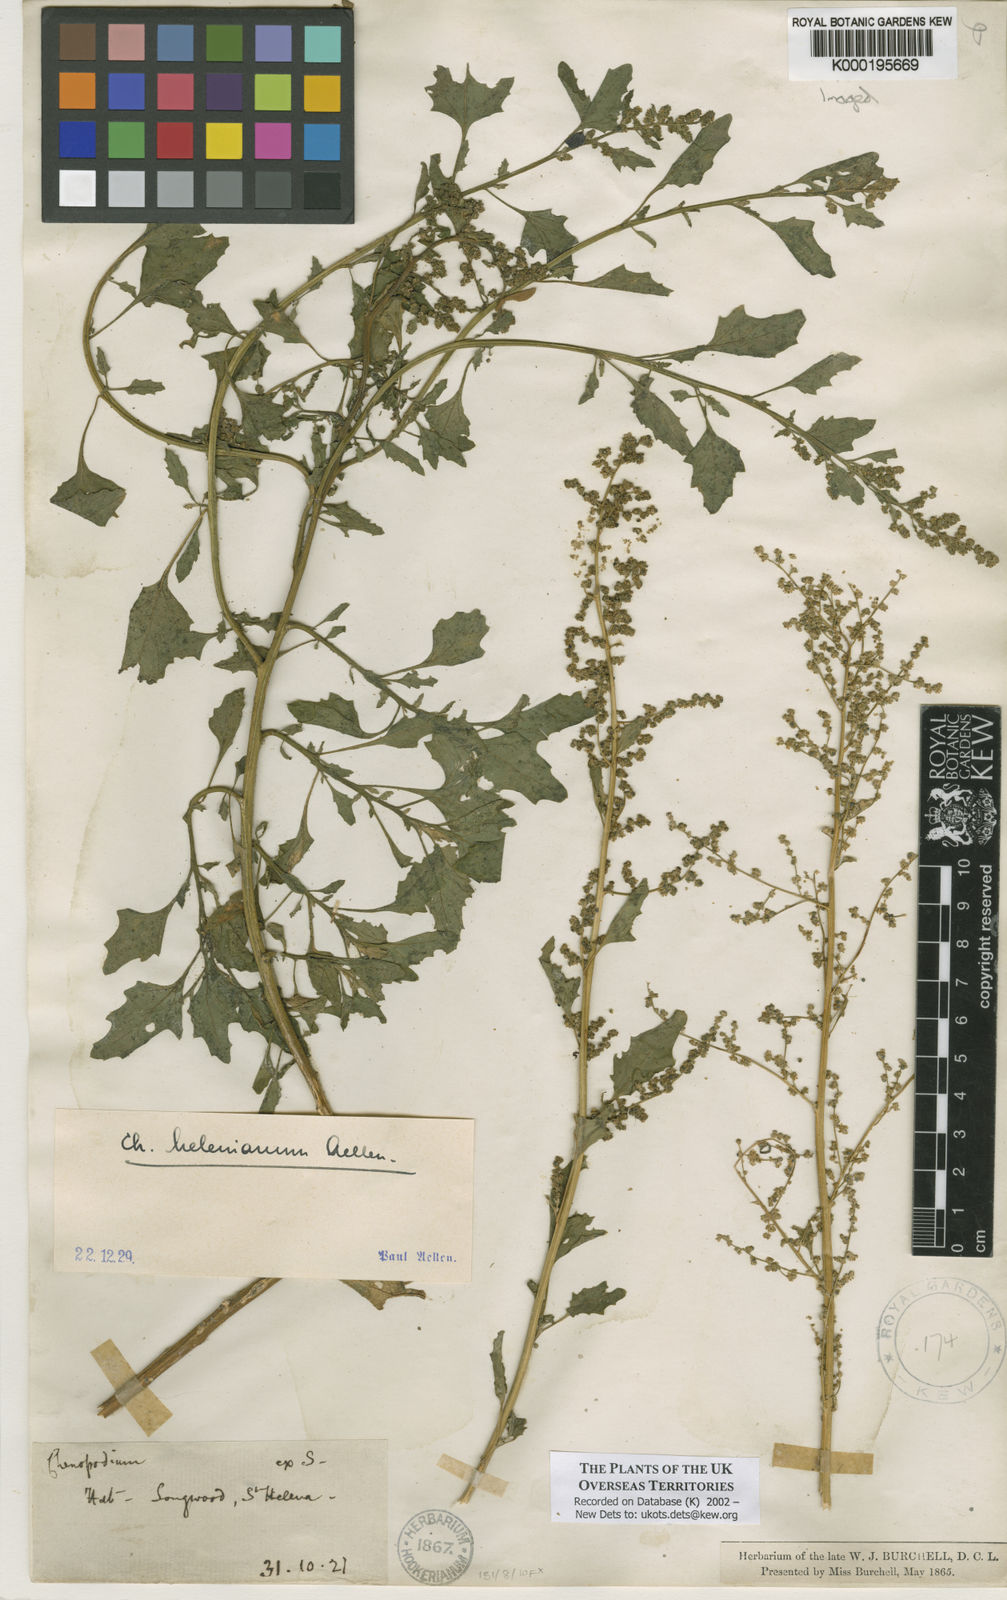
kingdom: Plantae
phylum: Tracheophyta
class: Magnoliopsida
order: Caryophyllales
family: Amaranthaceae
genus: Chenopodium
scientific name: Chenopodium
